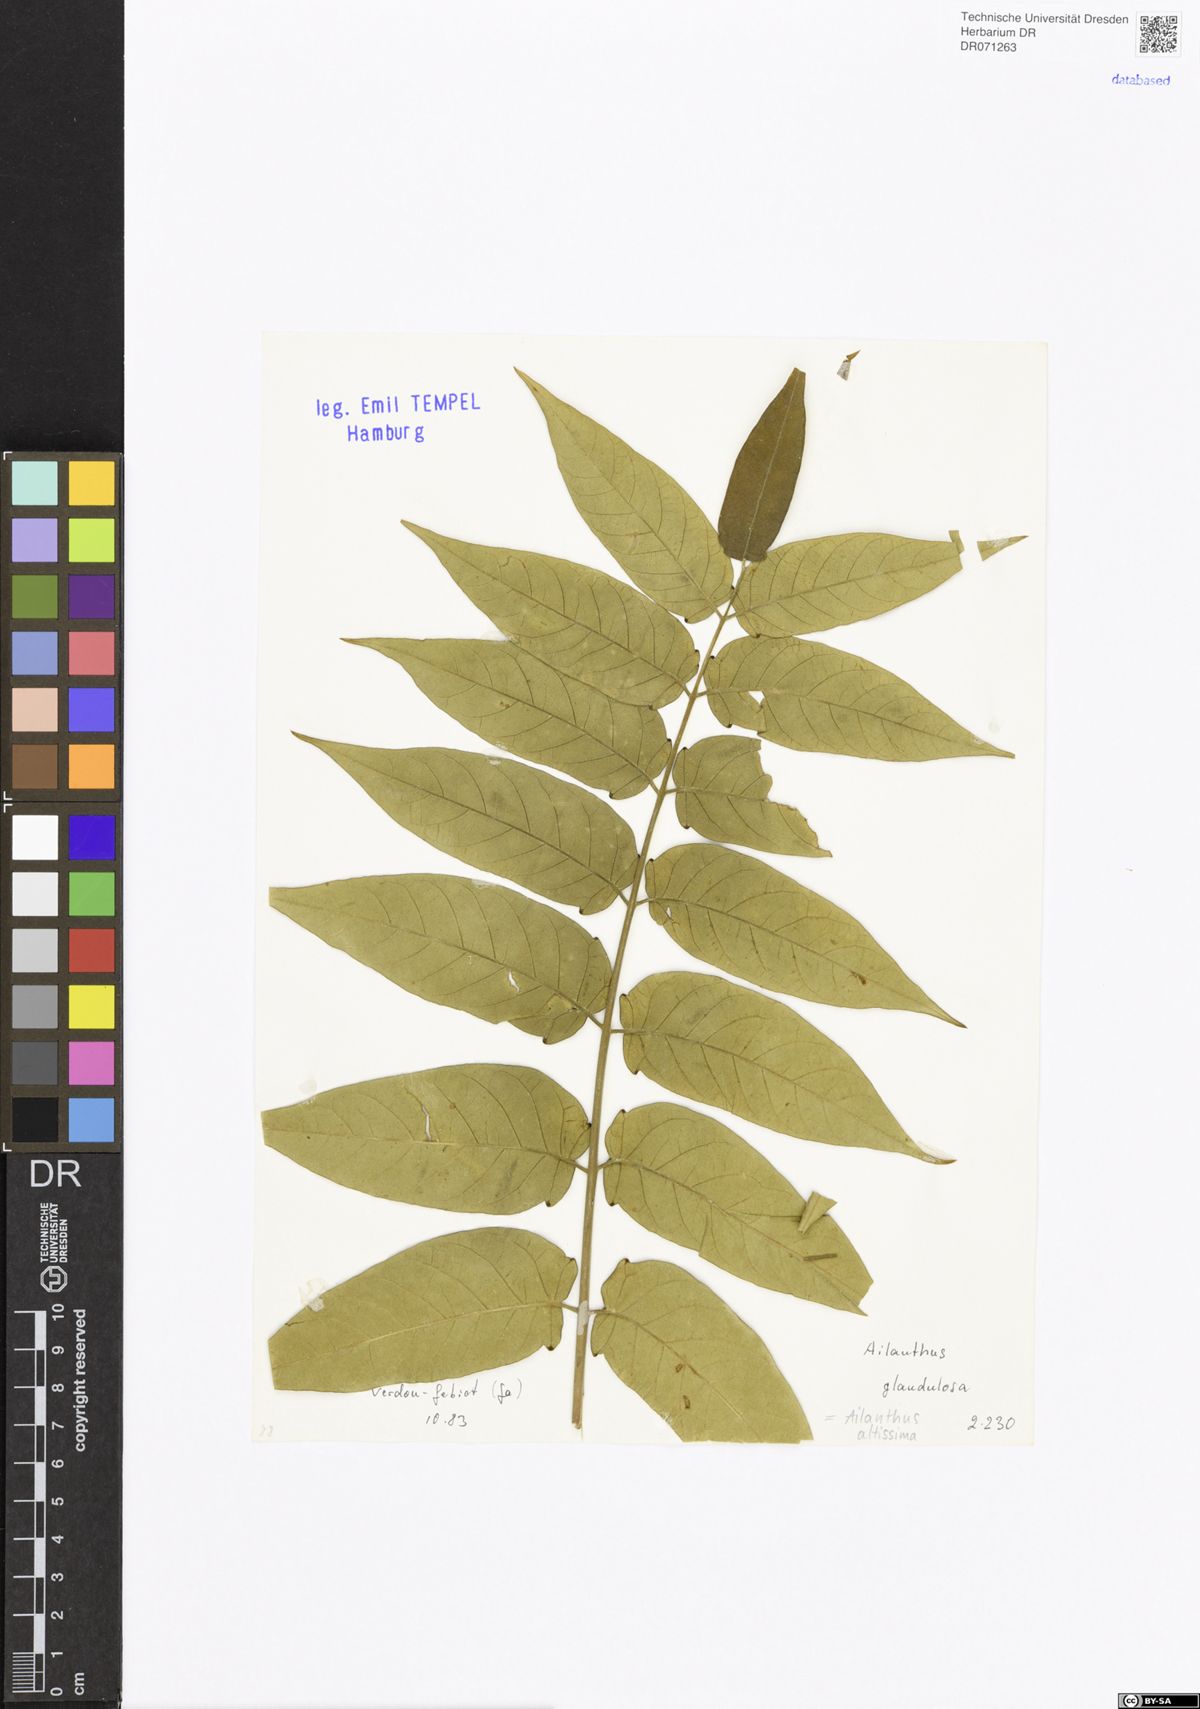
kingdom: Plantae
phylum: Tracheophyta
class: Magnoliopsida
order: Sapindales
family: Simaroubaceae
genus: Ailanthus
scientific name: Ailanthus altissima
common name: Tree-of-heaven
